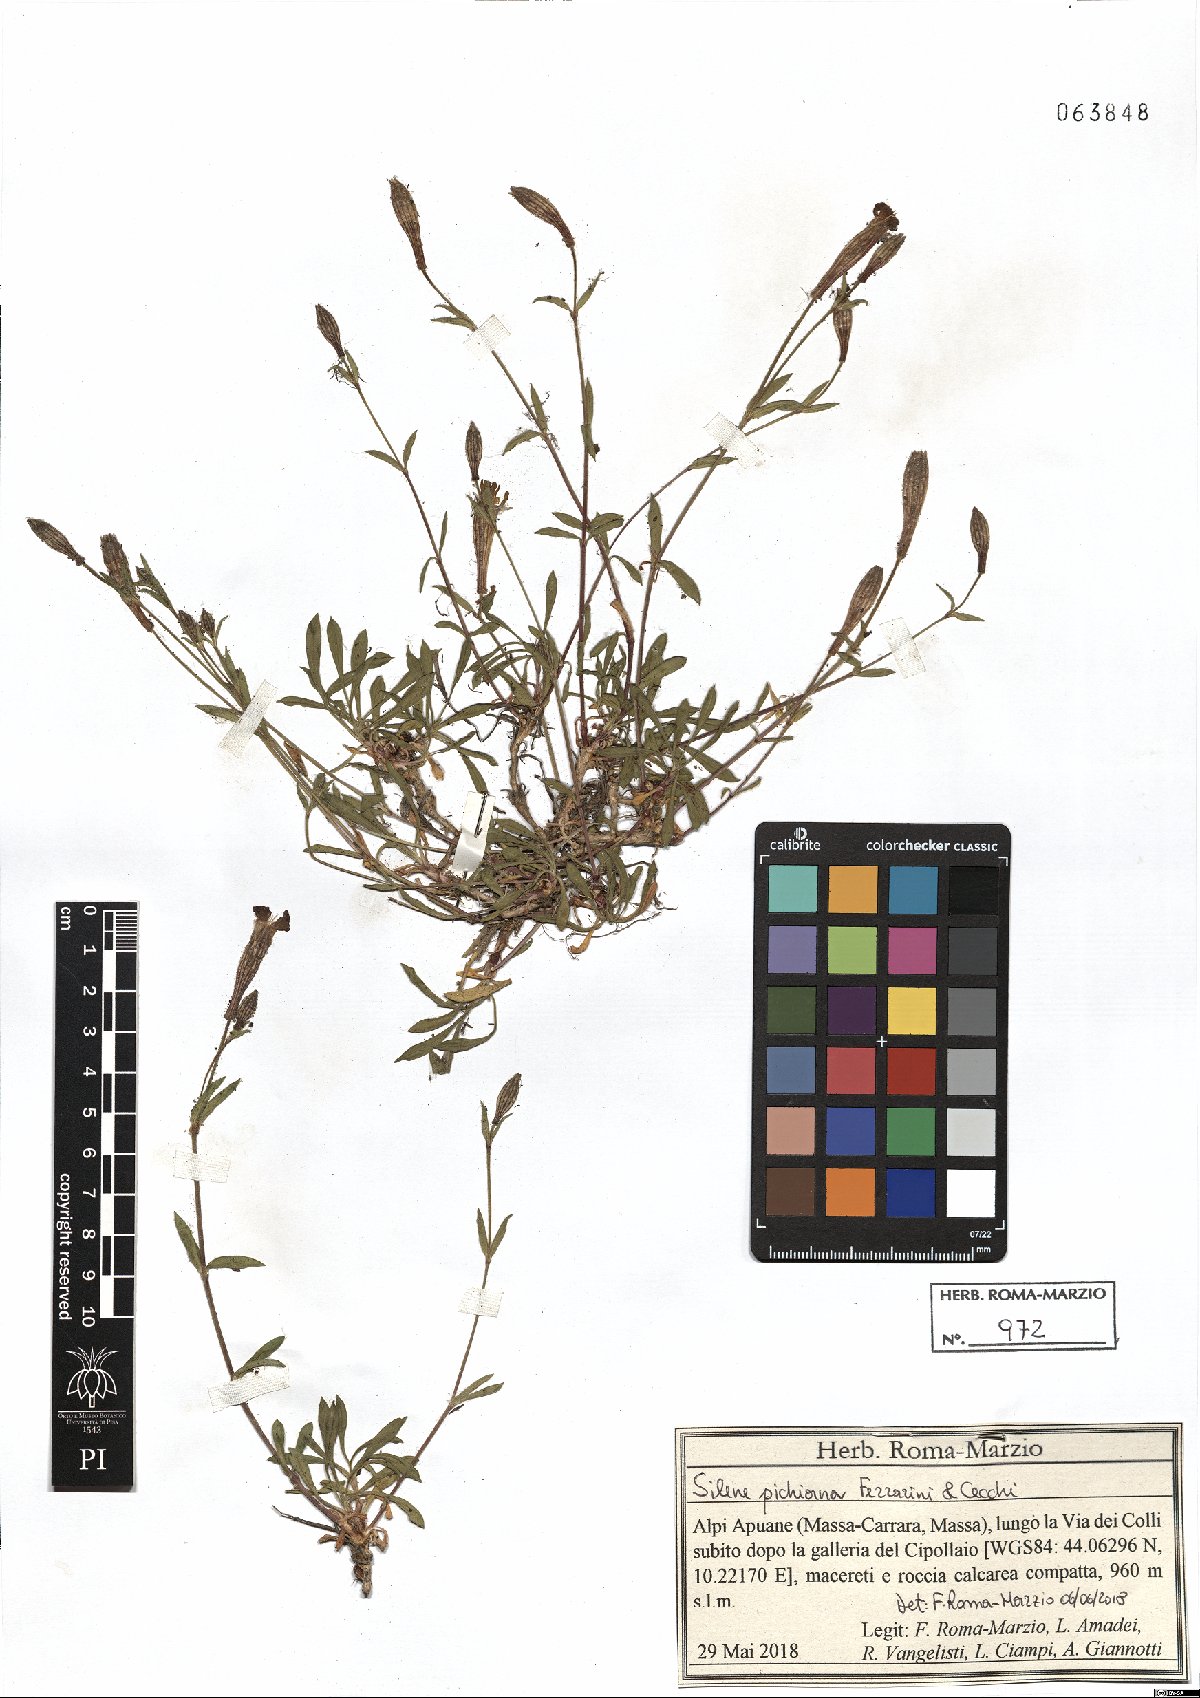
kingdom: Plantae
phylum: Tracheophyta
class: Magnoliopsida
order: Caryophyllales
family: Caryophyllaceae
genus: Silene
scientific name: Silene pichiana
